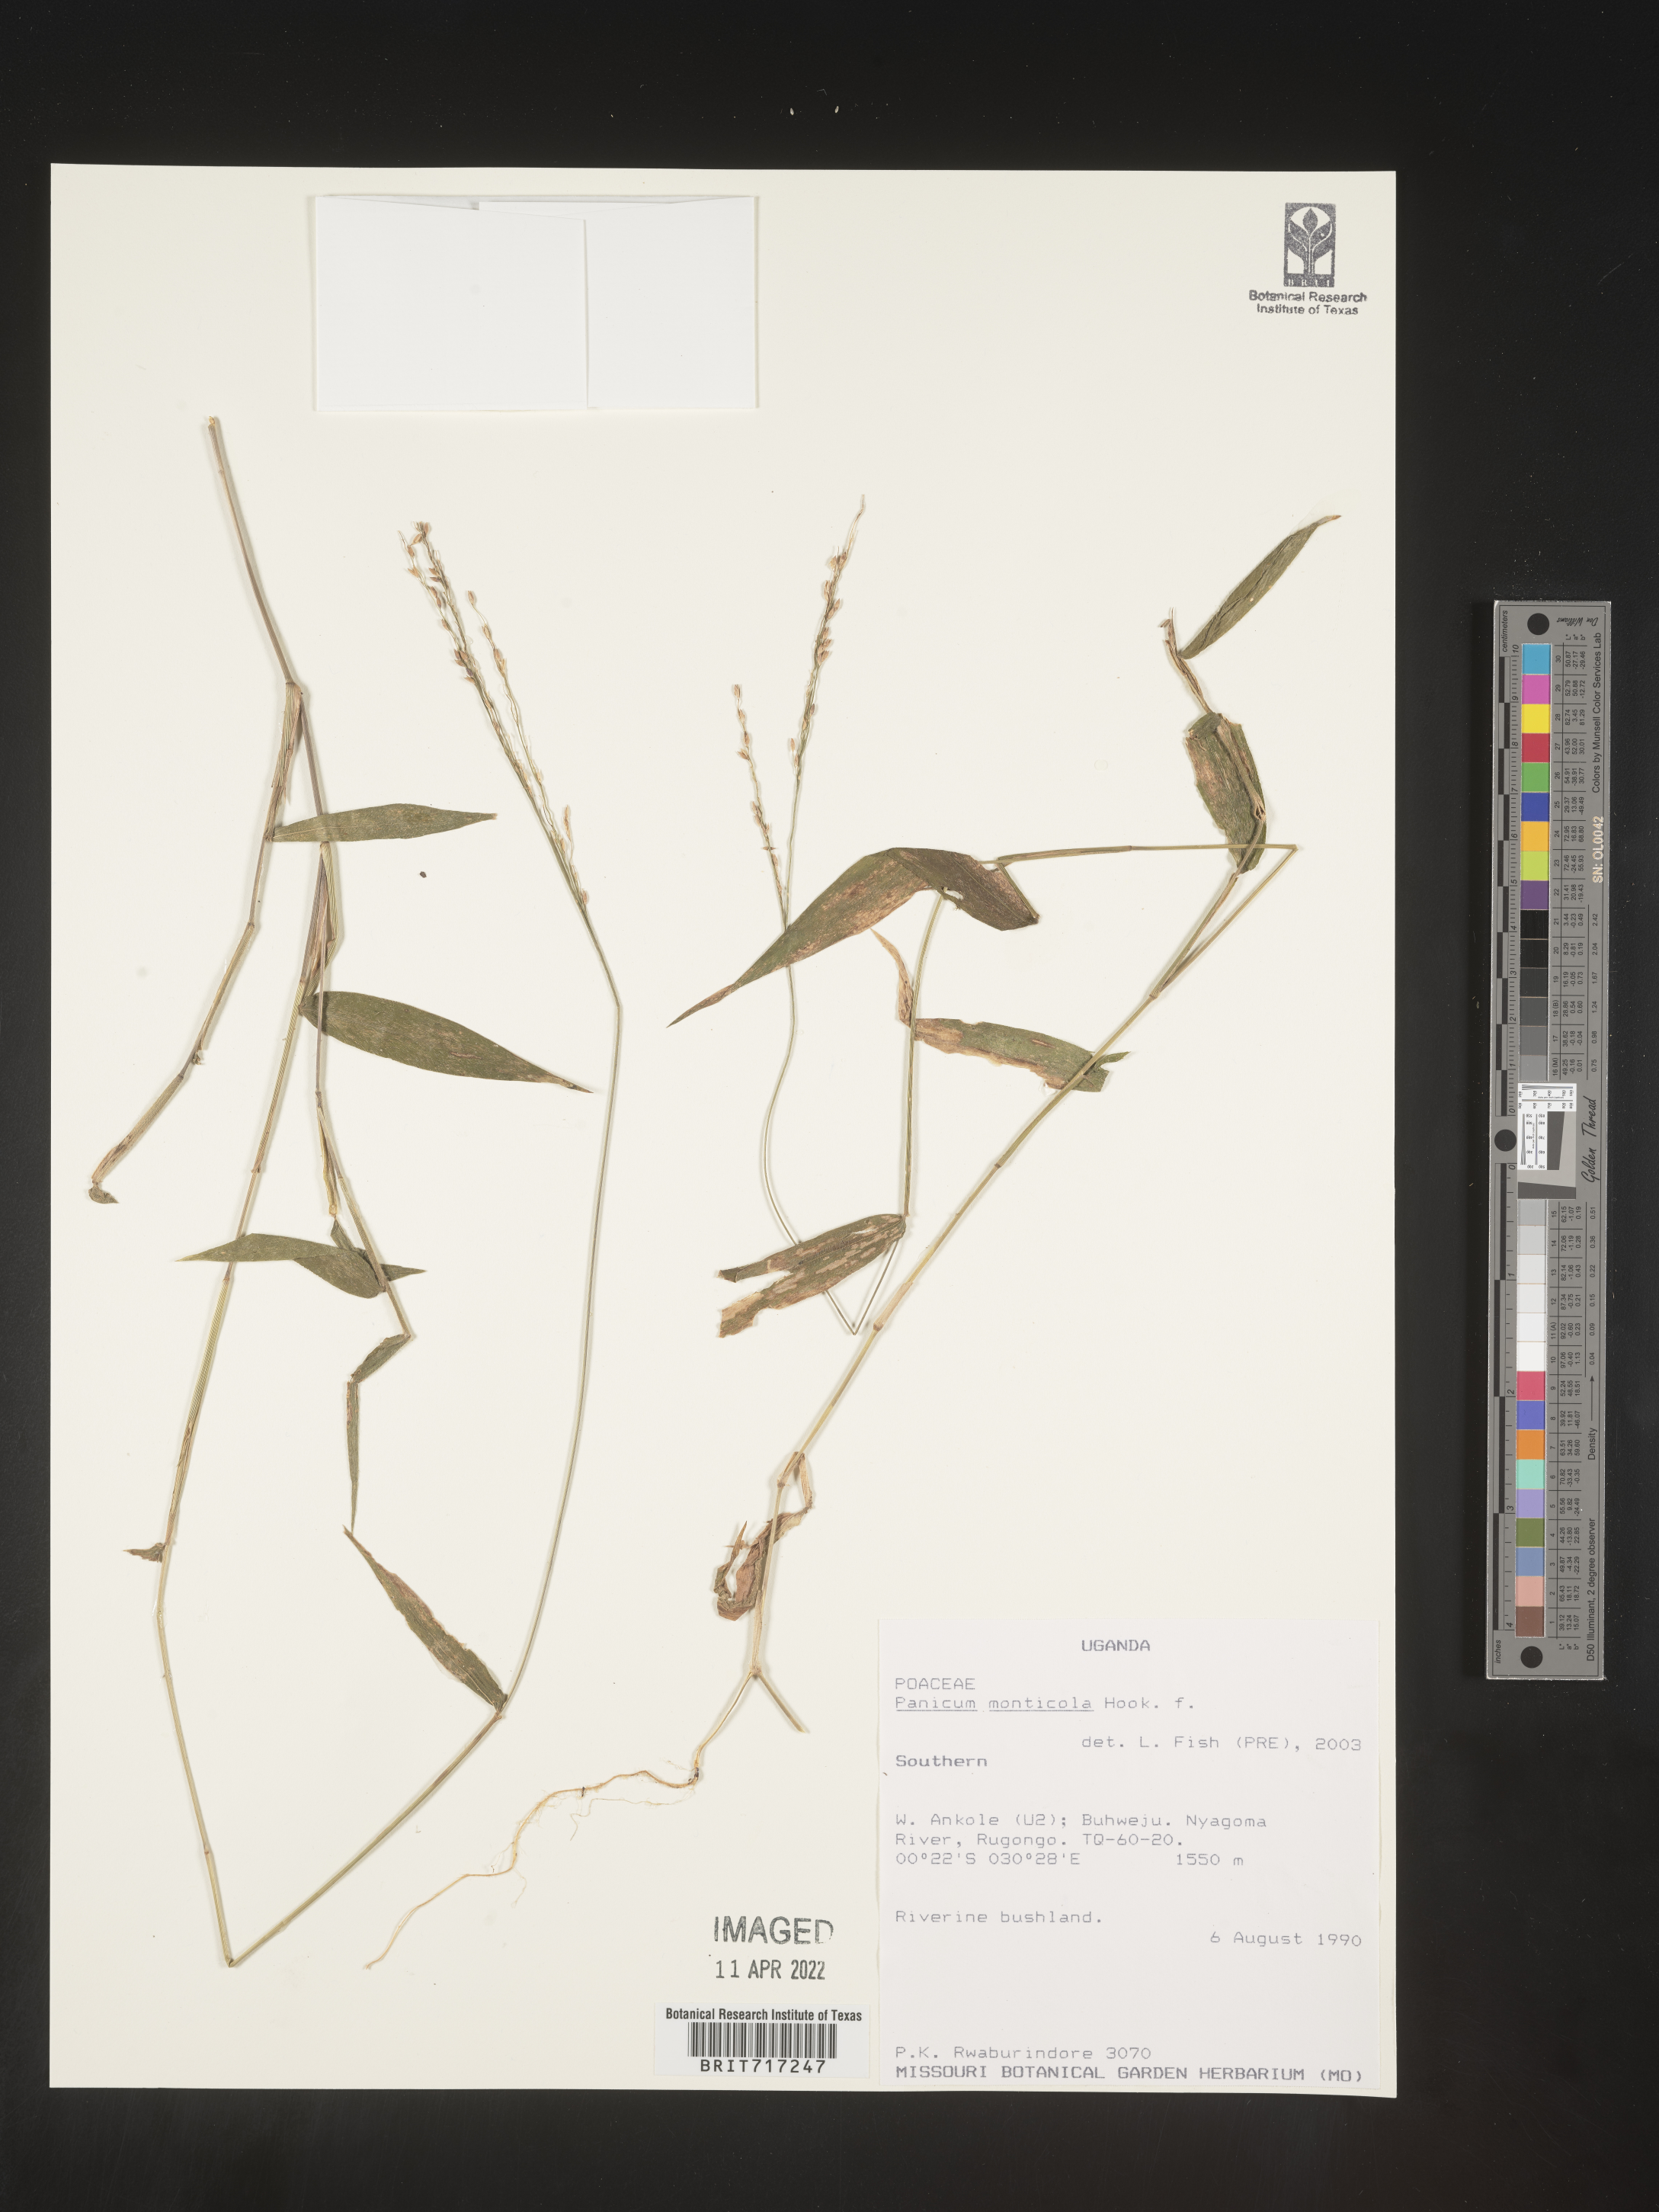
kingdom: Plantae
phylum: Tracheophyta
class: Liliopsida
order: Poales
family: Poaceae
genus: Panicum
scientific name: Panicum
